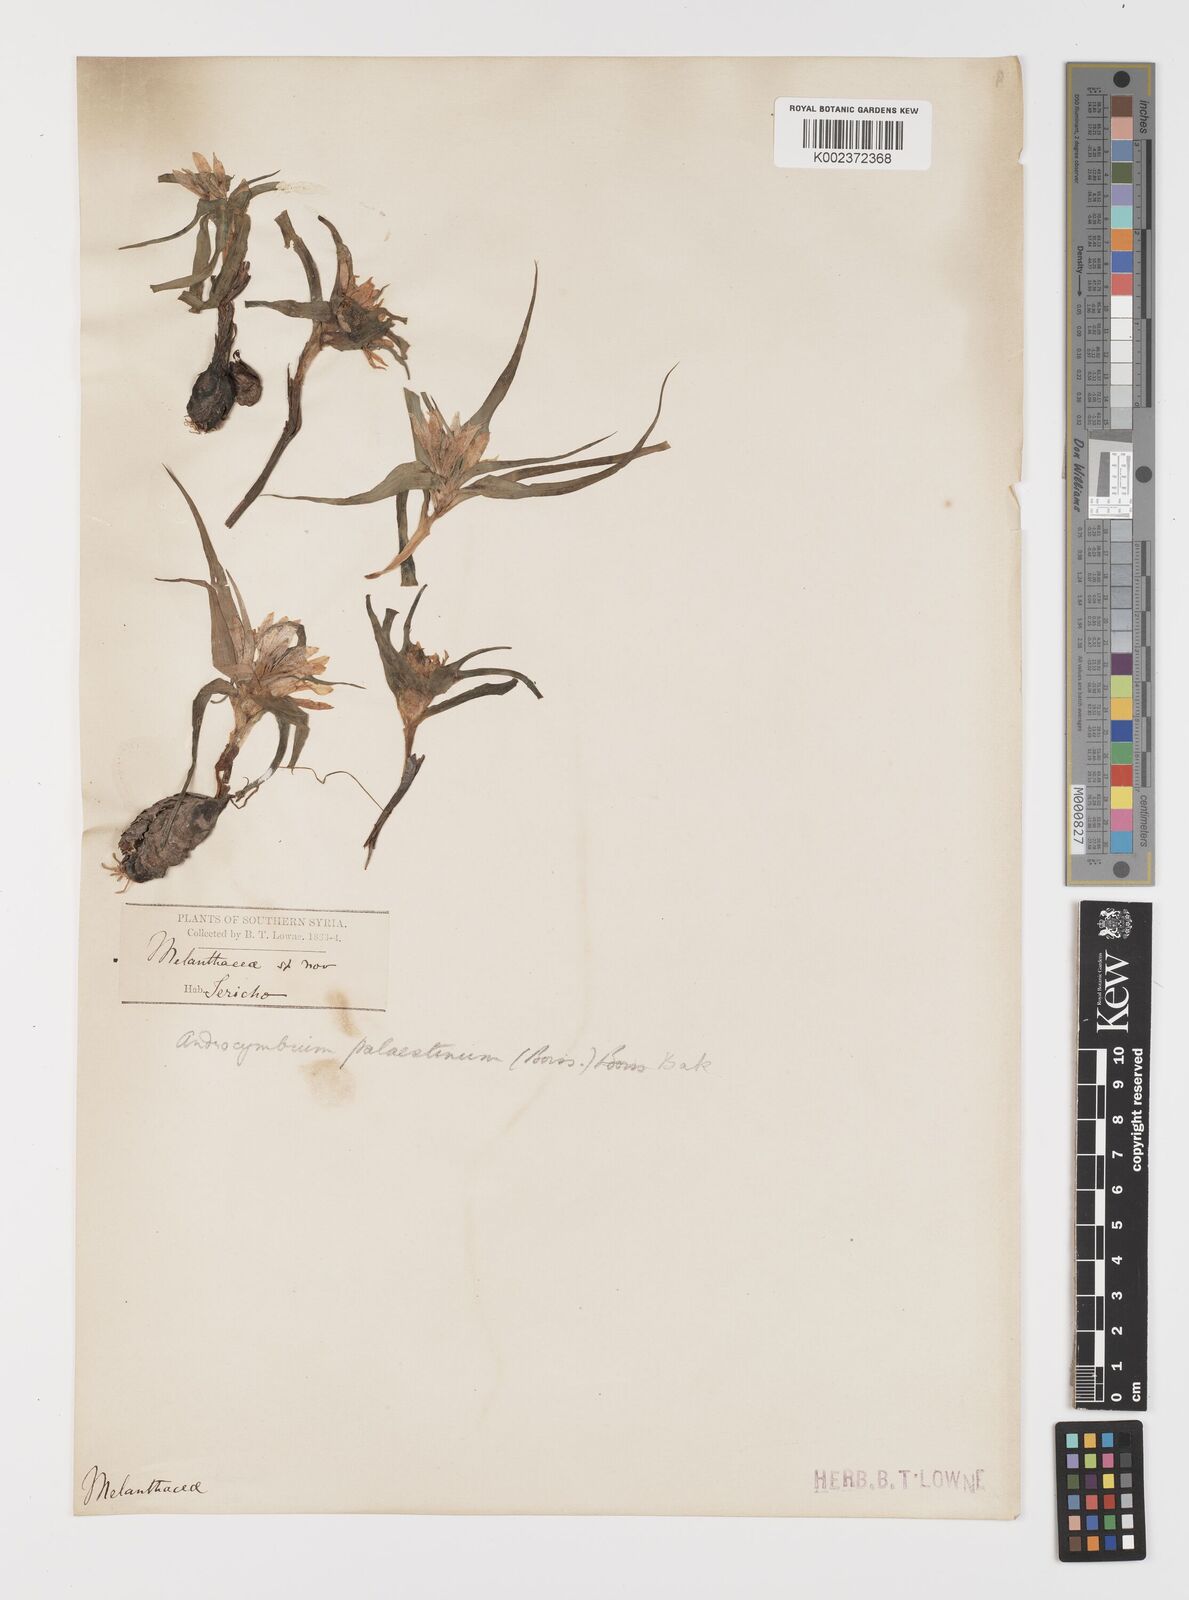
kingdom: Plantae
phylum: Tracheophyta
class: Liliopsida
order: Liliales
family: Colchicaceae
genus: Colchicum
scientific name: Colchicum palaestinum
